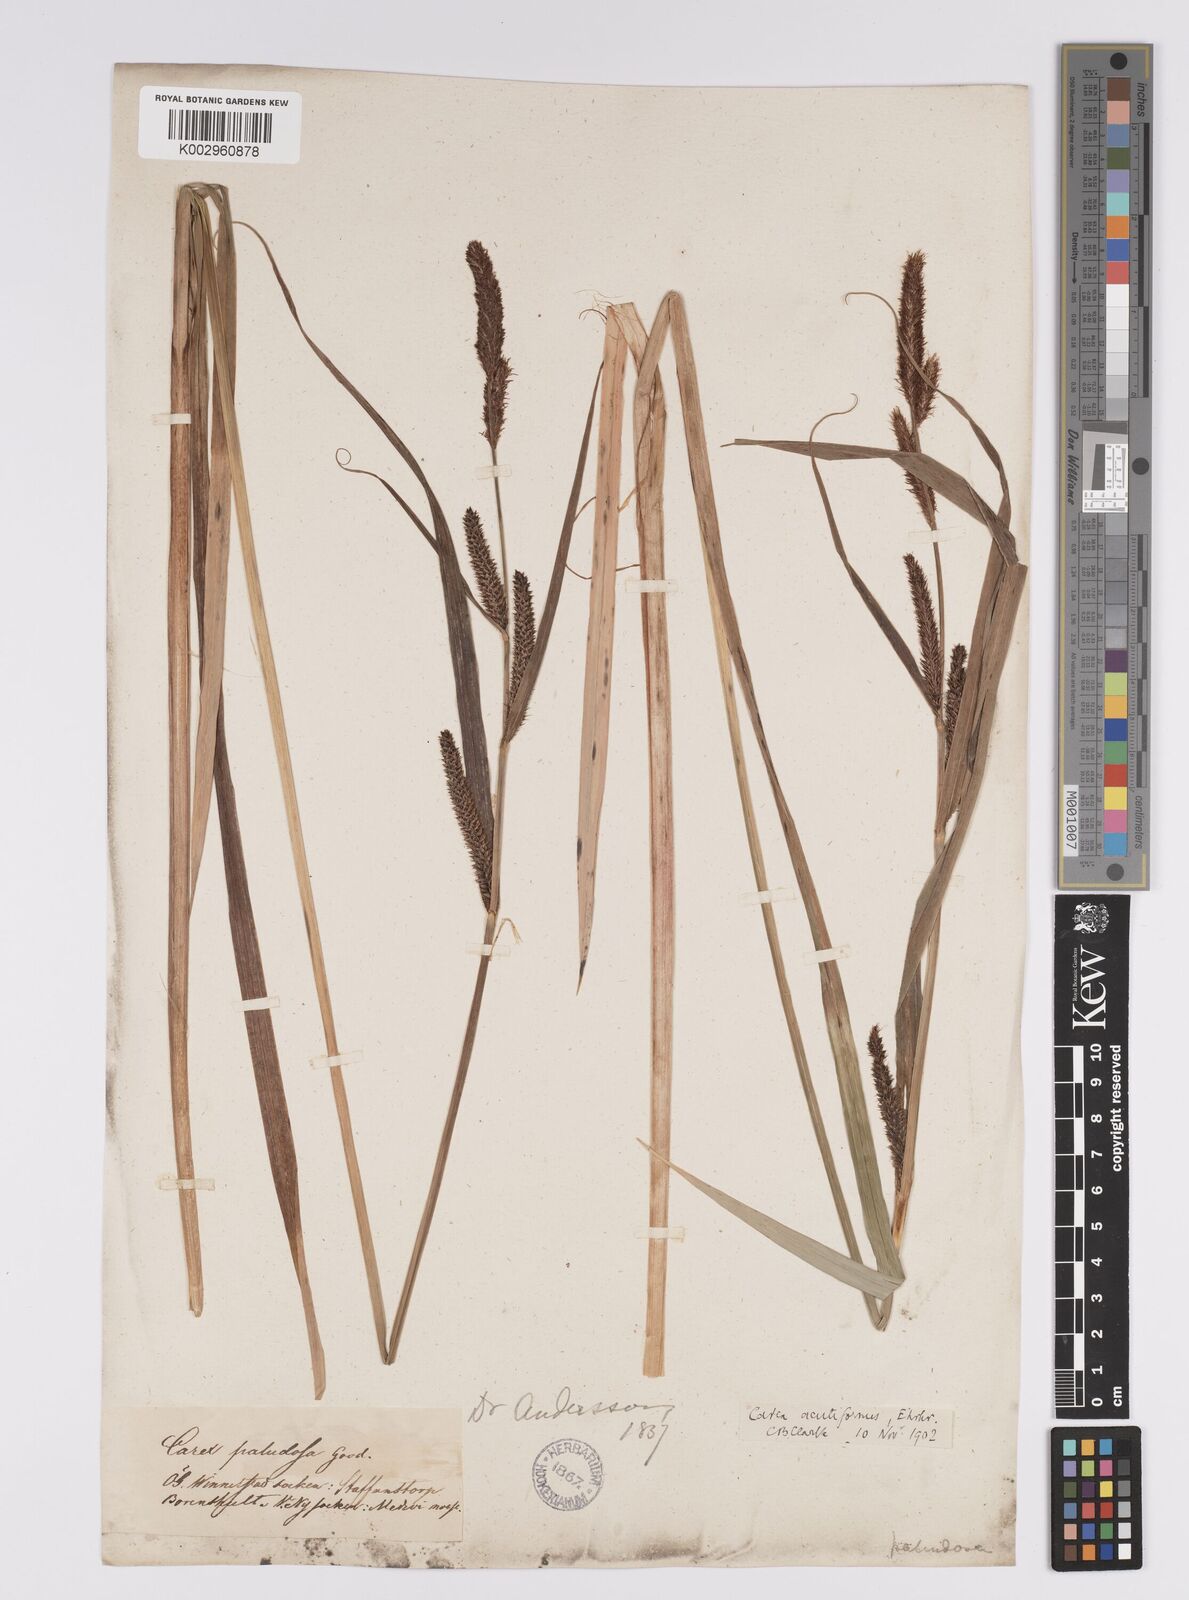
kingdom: Plantae
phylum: Tracheophyta
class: Liliopsida
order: Poales
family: Cyperaceae
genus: Carex
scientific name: Carex acutiformis
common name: Lesser pond-sedge
